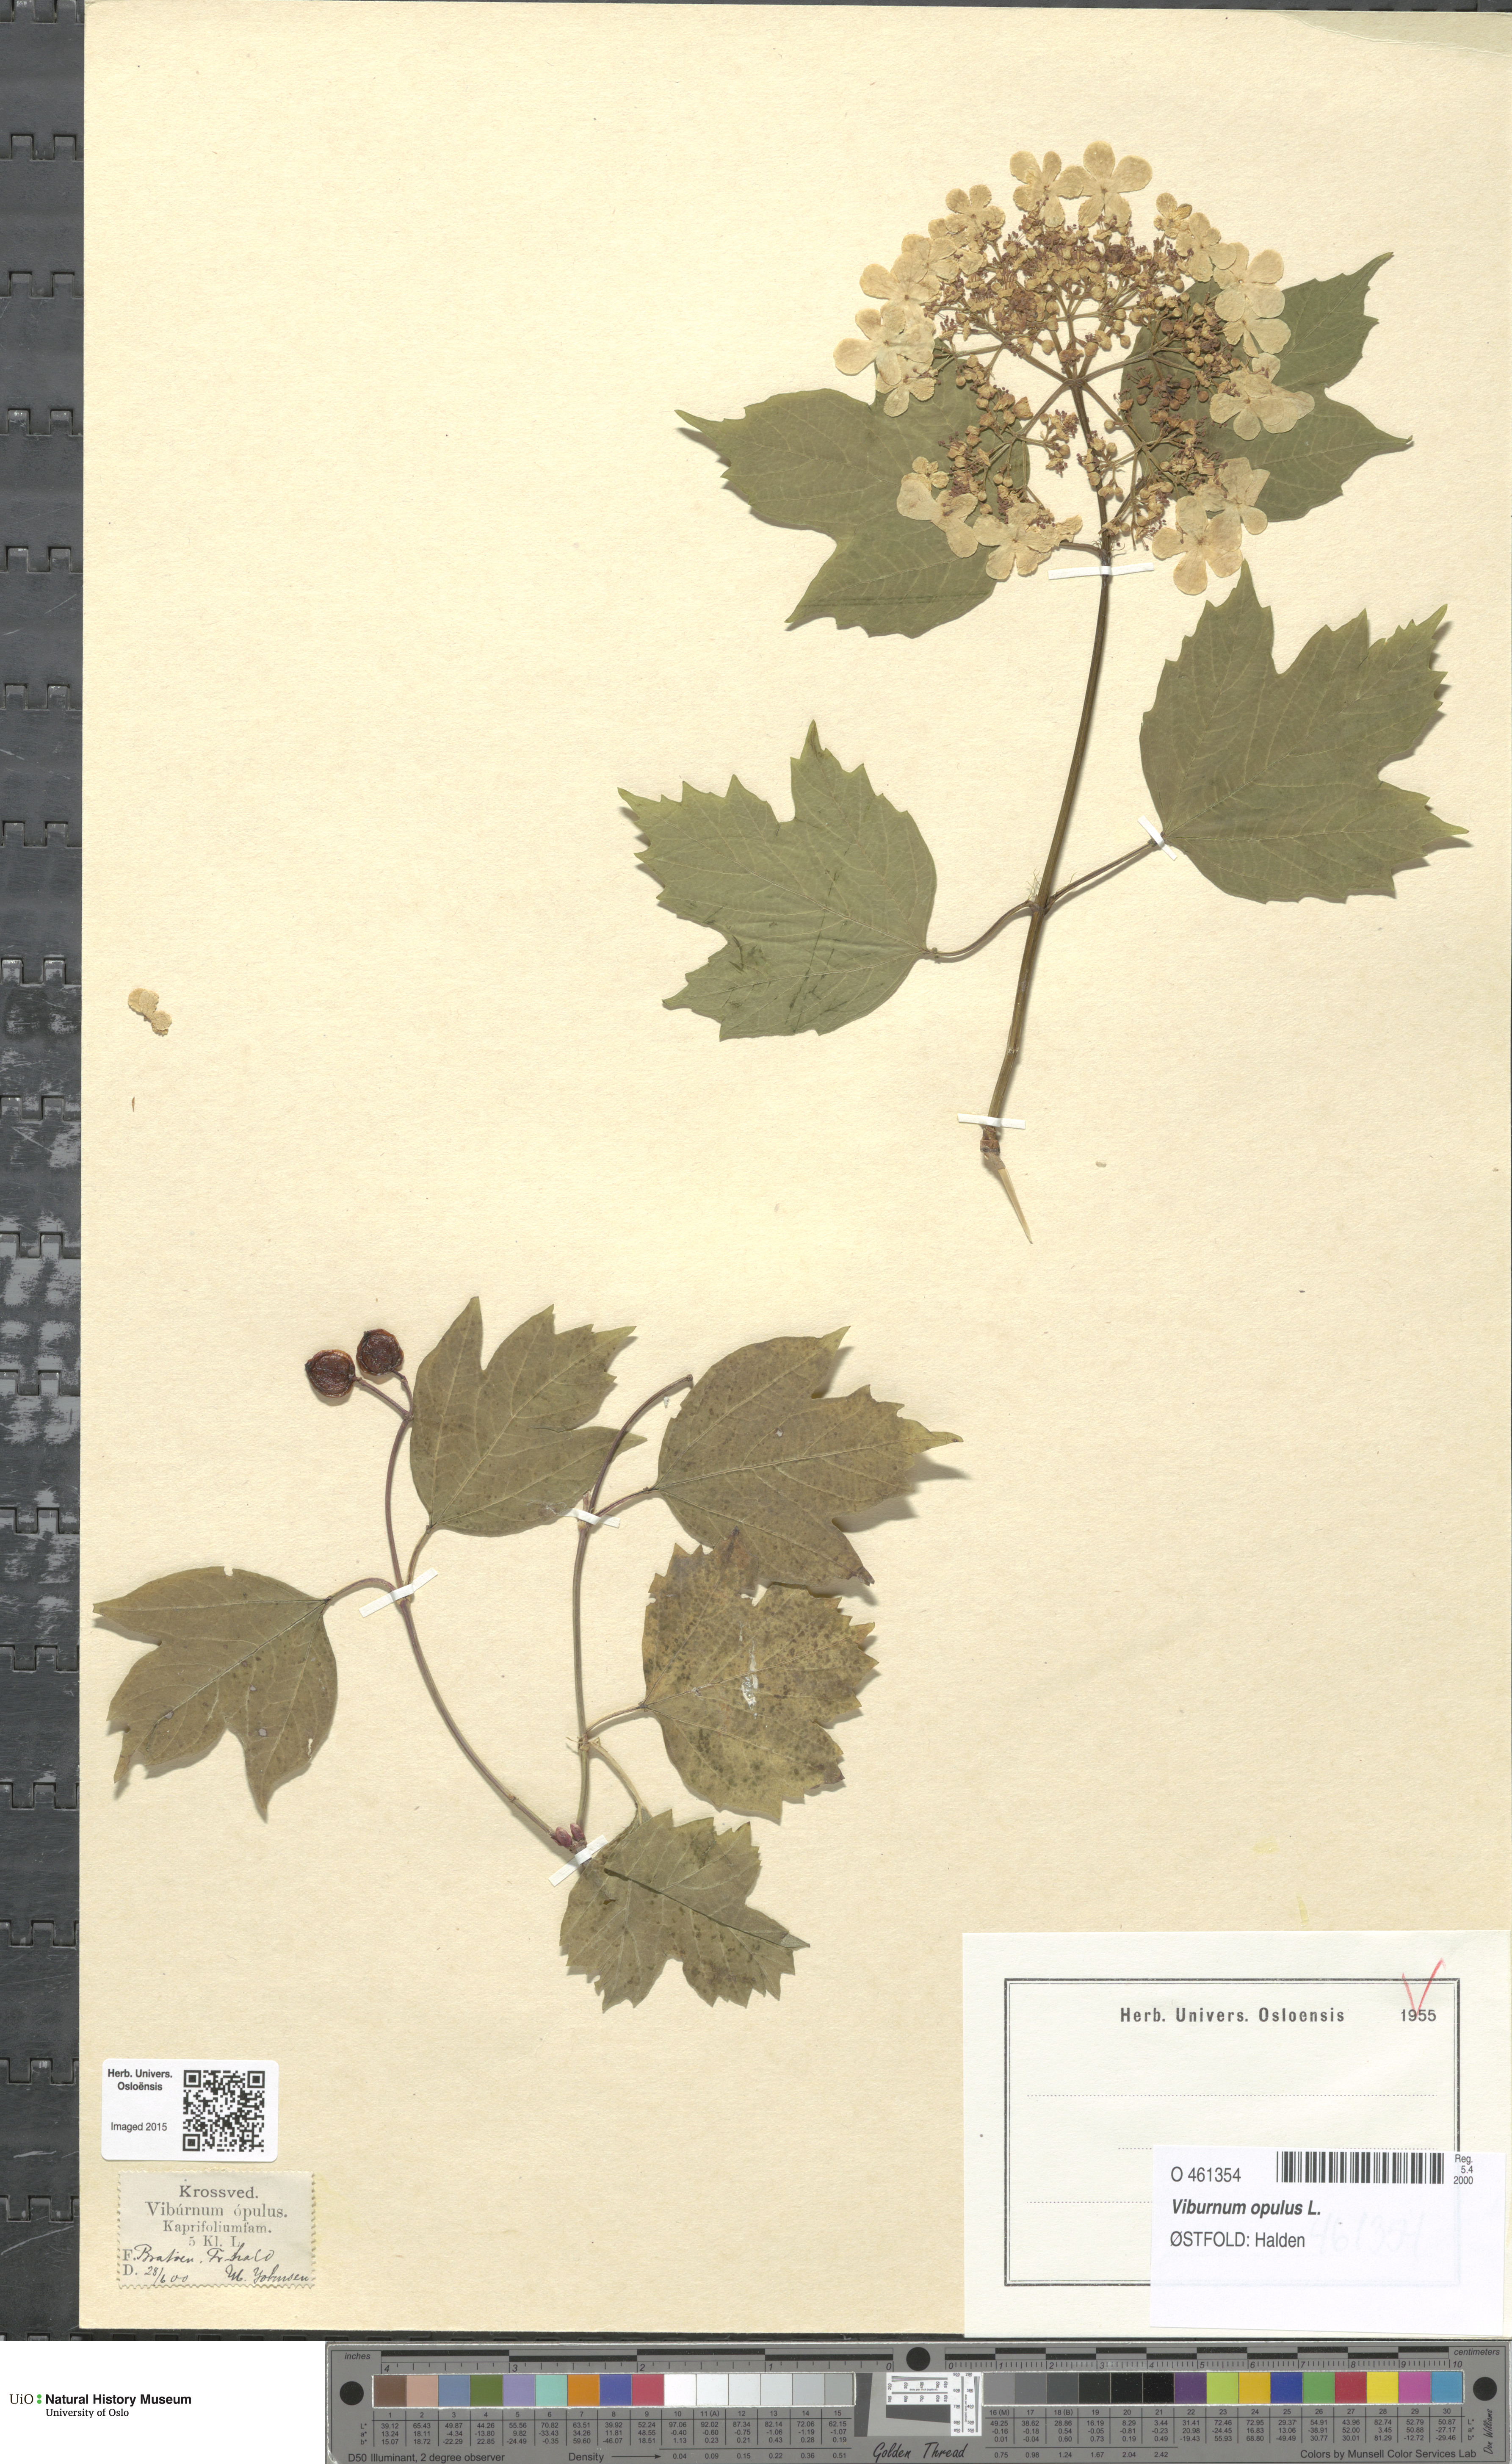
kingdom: Plantae
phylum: Tracheophyta
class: Magnoliopsida
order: Dipsacales
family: Viburnaceae
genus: Viburnum
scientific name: Viburnum opulus
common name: Guelder-rose
